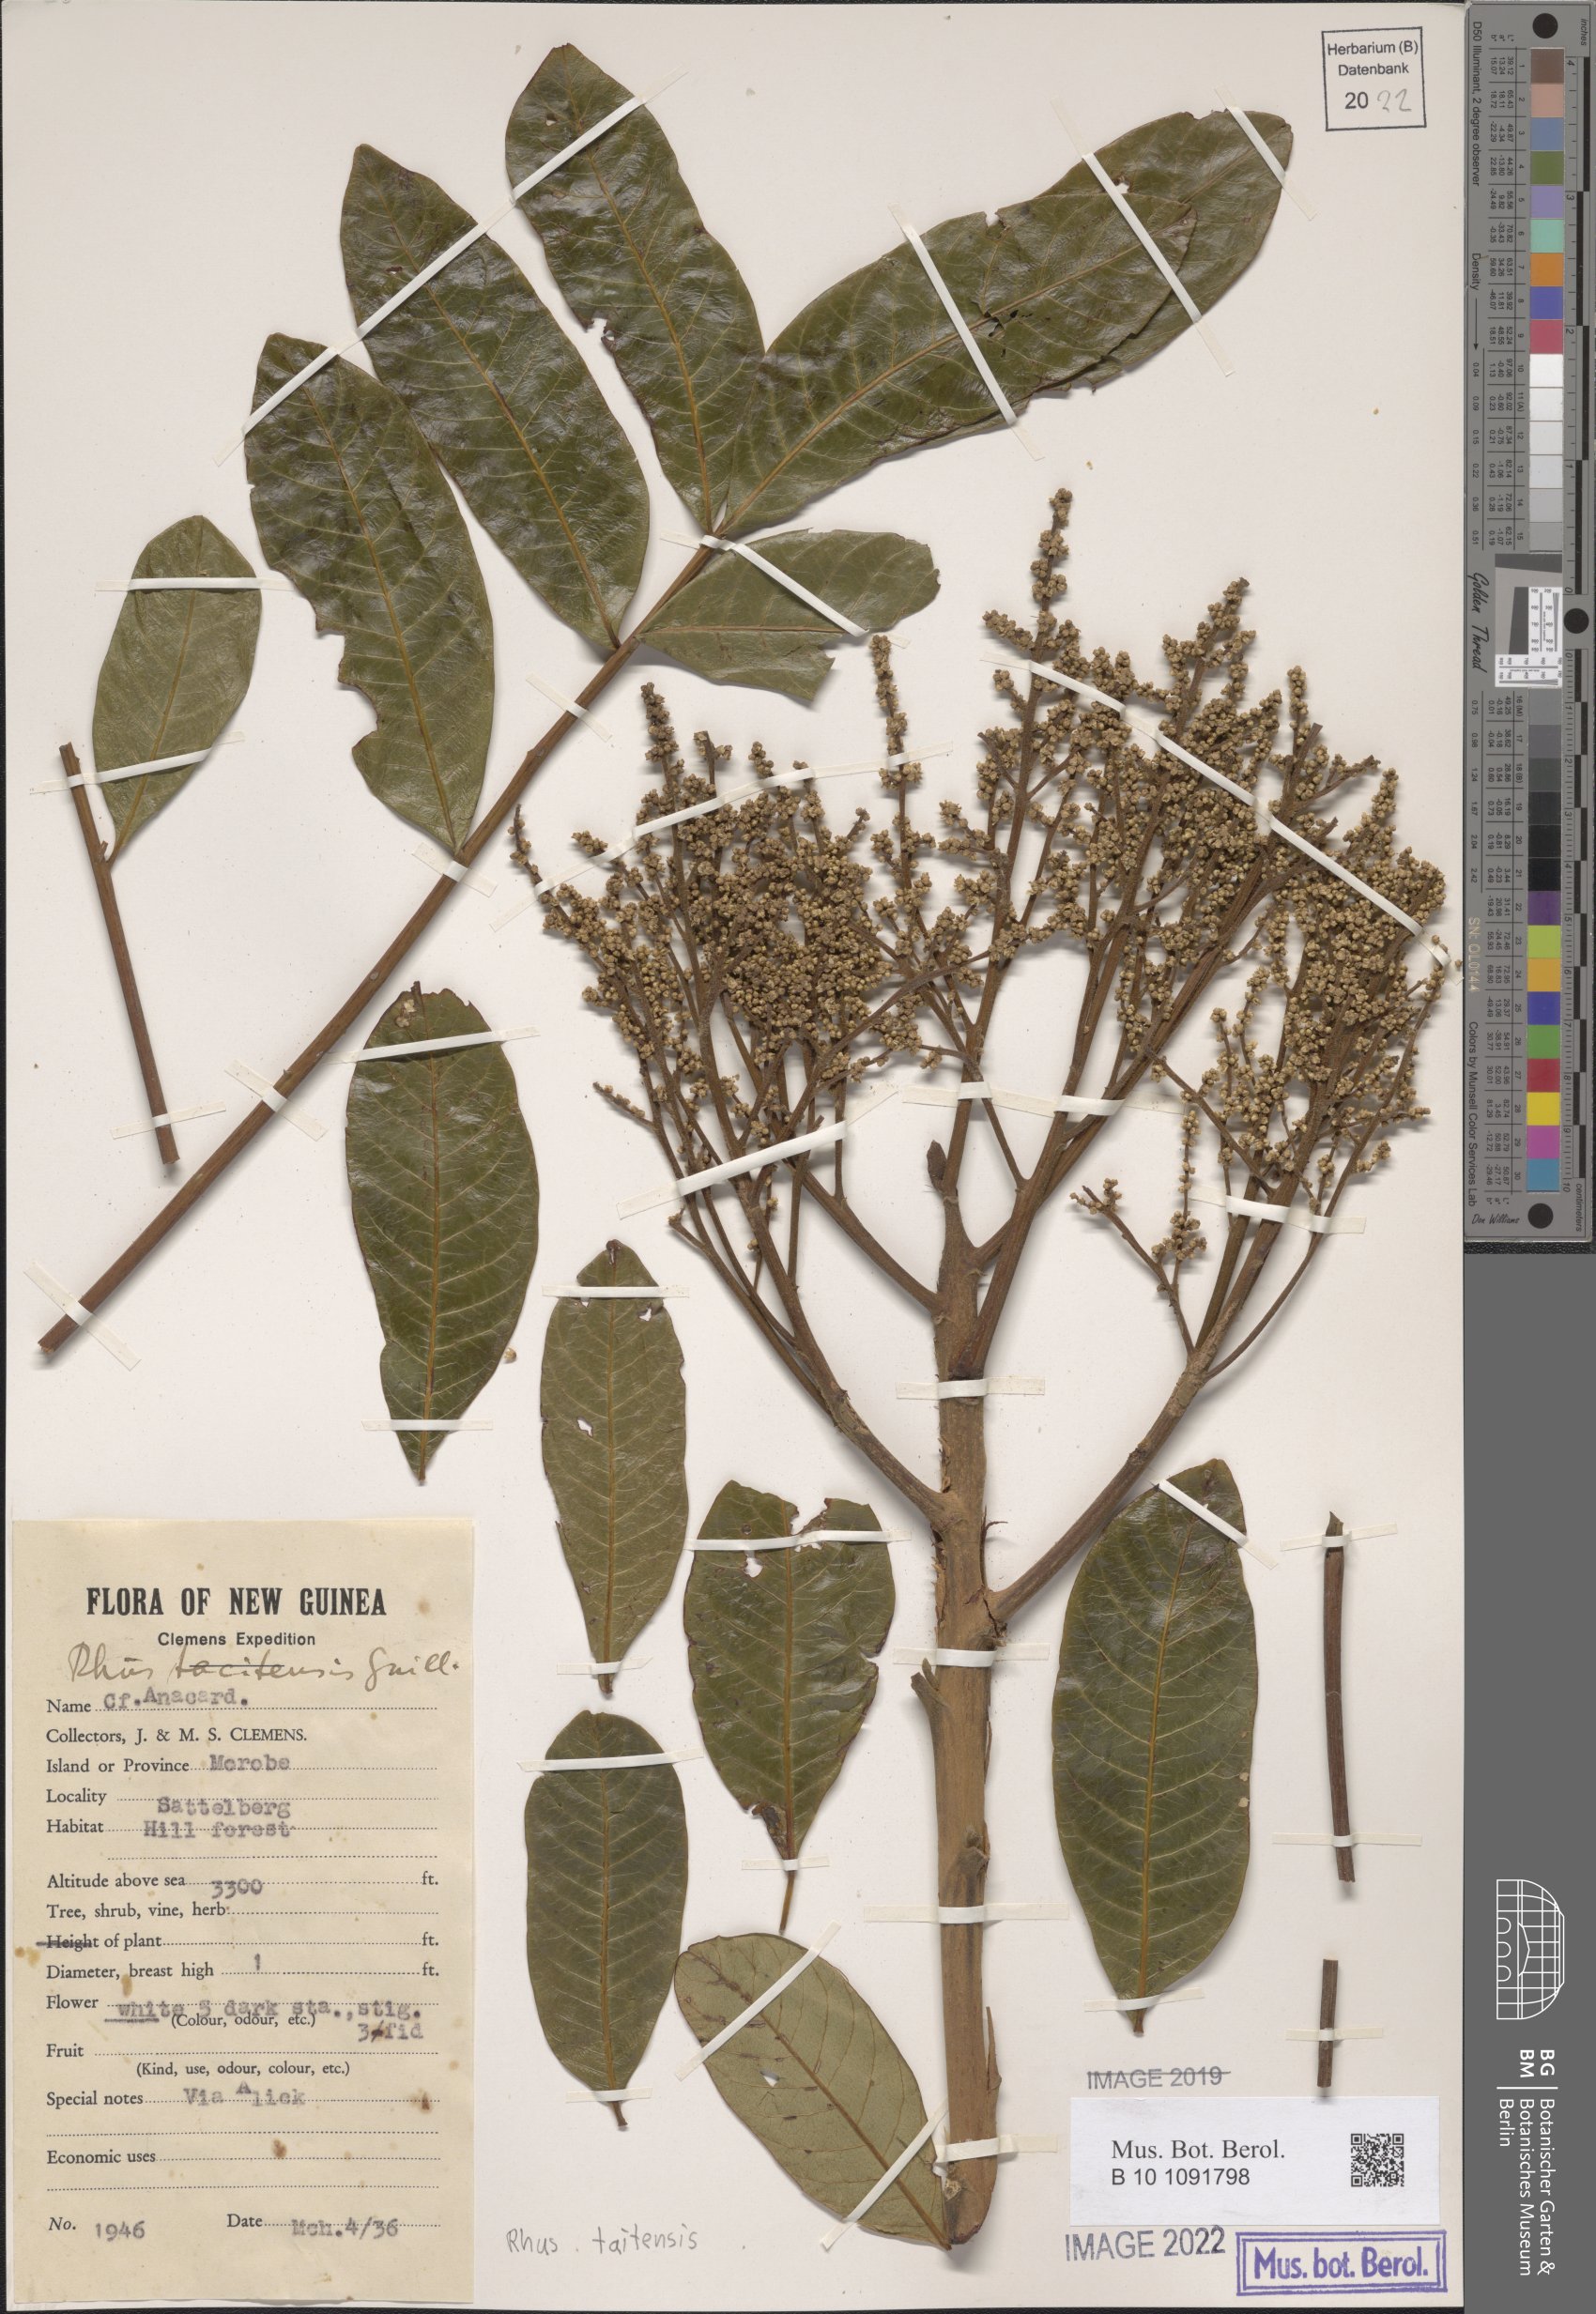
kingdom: Plantae
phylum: Tracheophyta
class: Magnoliopsida
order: Sapindales
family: Anacardiaceae
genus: Melanococca
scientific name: Melanococca tomentosa
